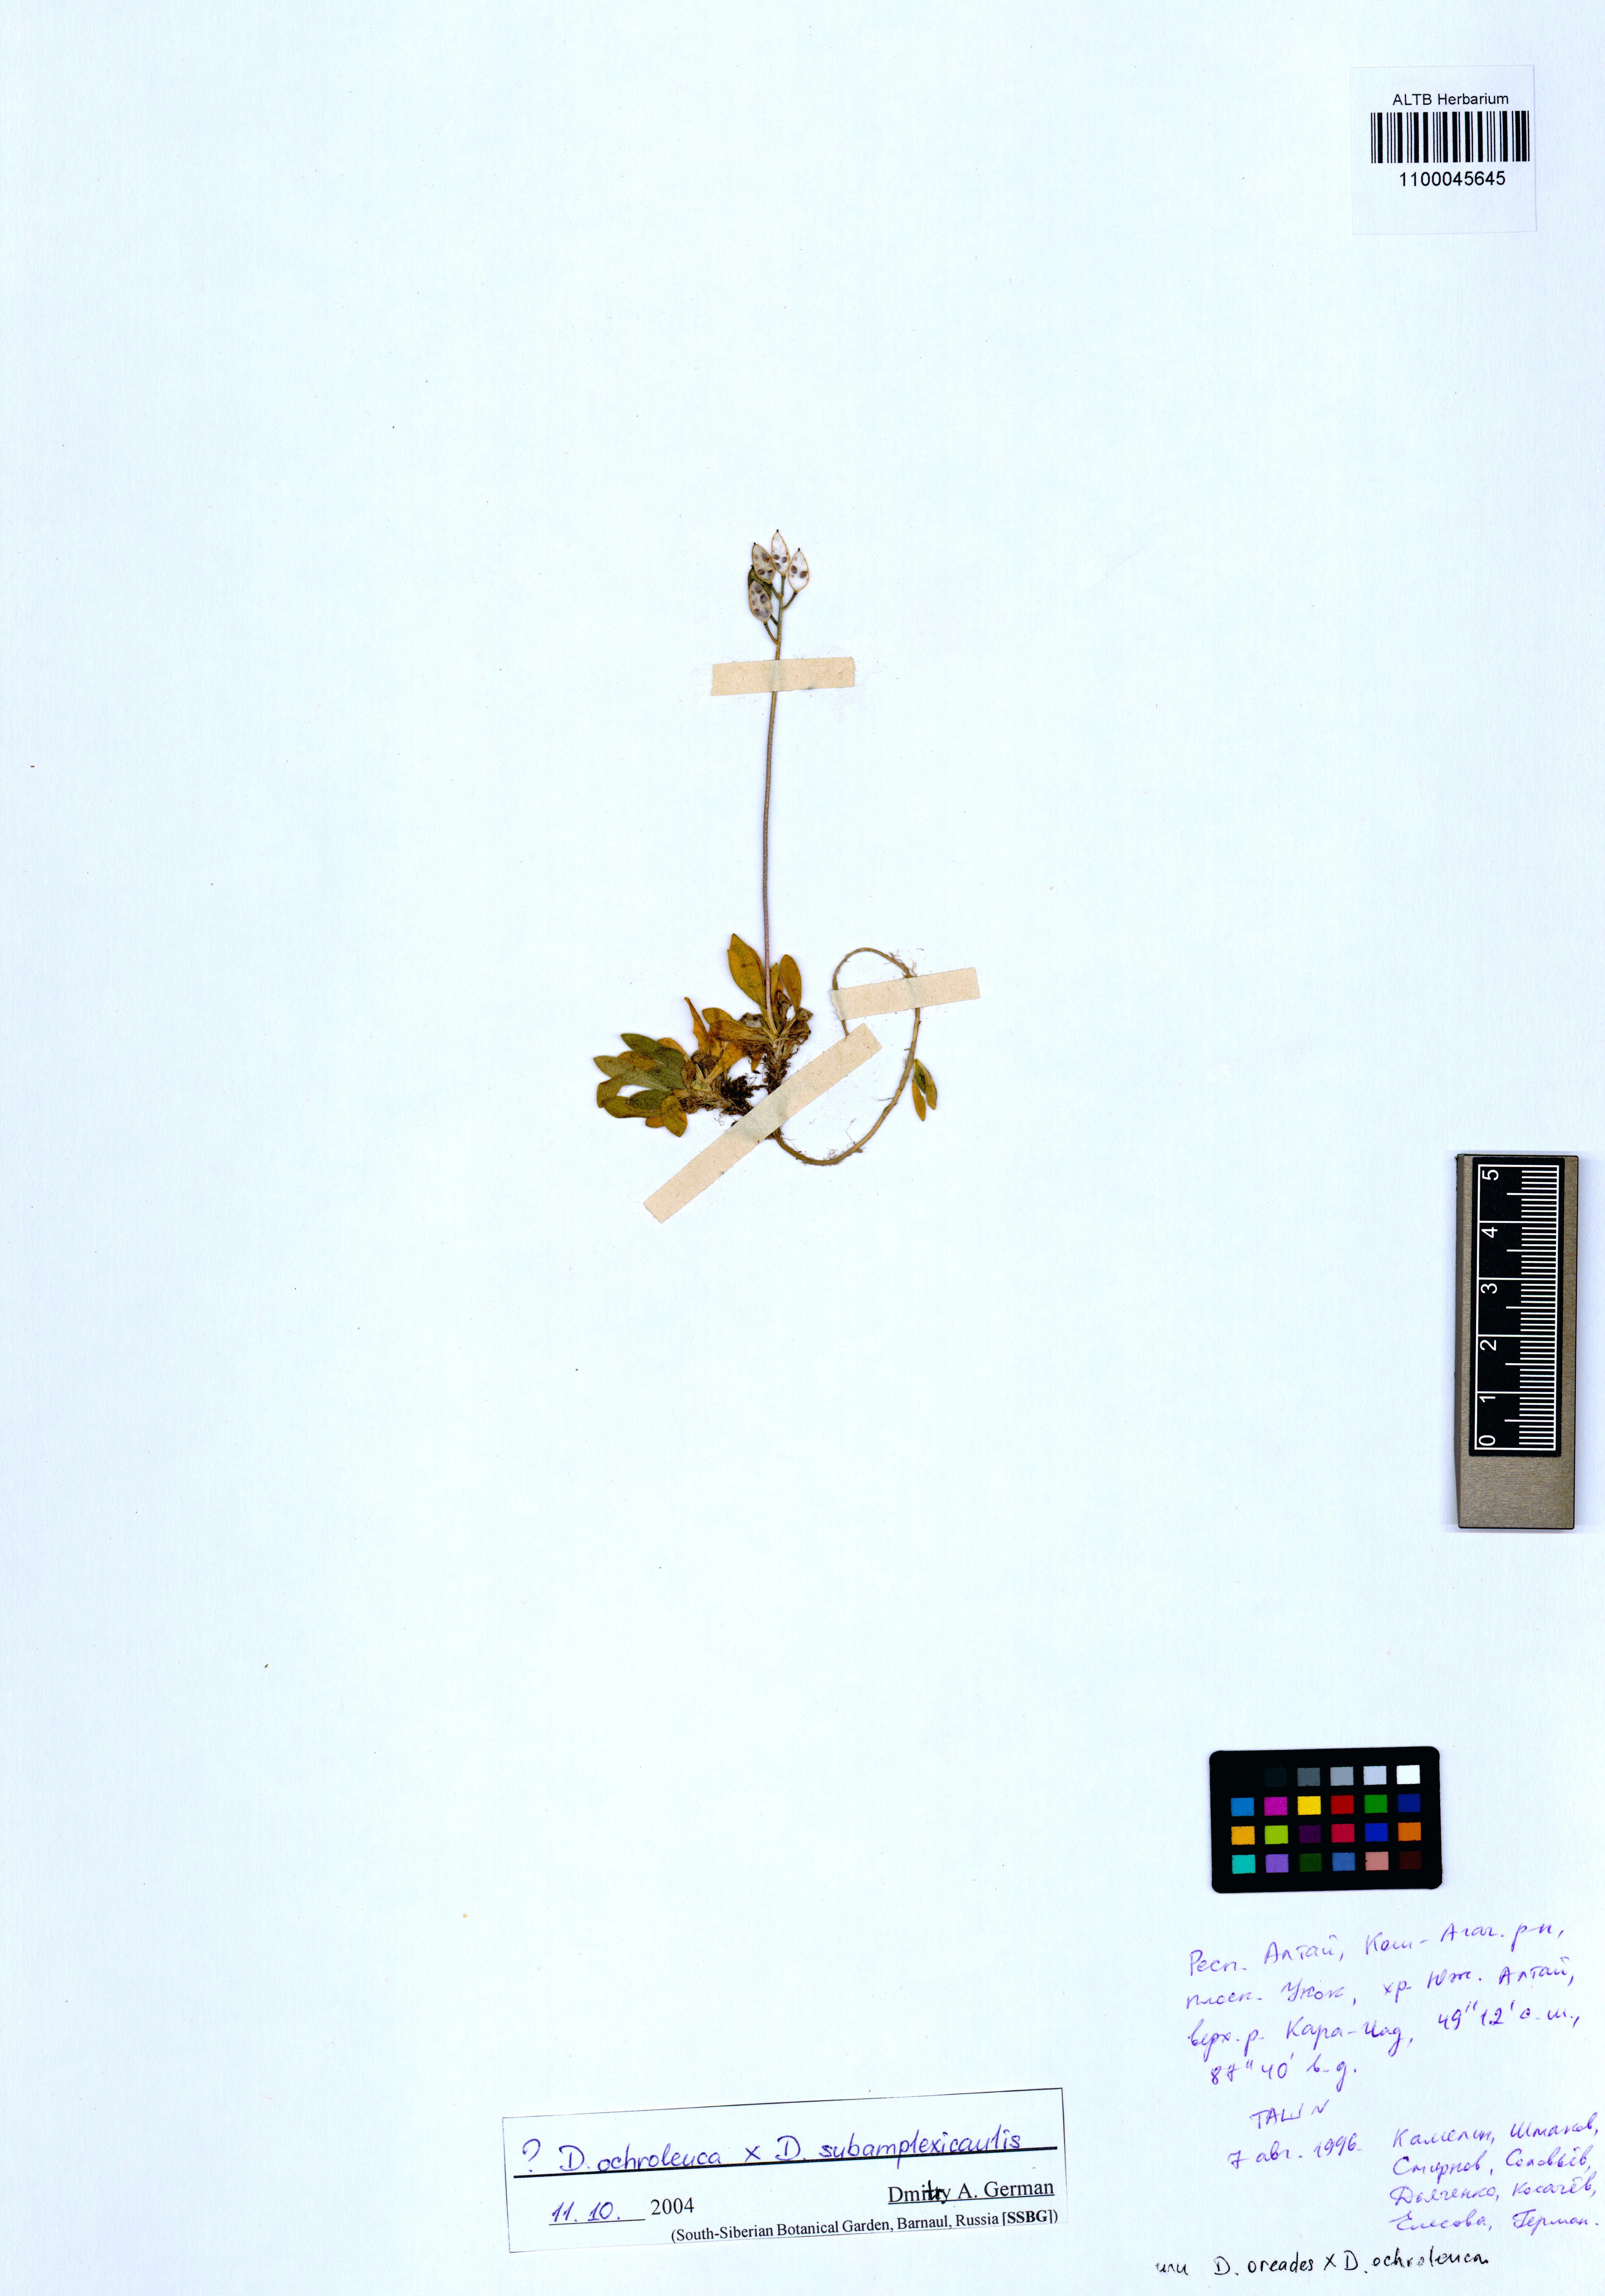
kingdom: Plantae
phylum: Tracheophyta
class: Magnoliopsida
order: Brassicales
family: Brassicaceae
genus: Lepidium
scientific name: Lepidium cordatum
